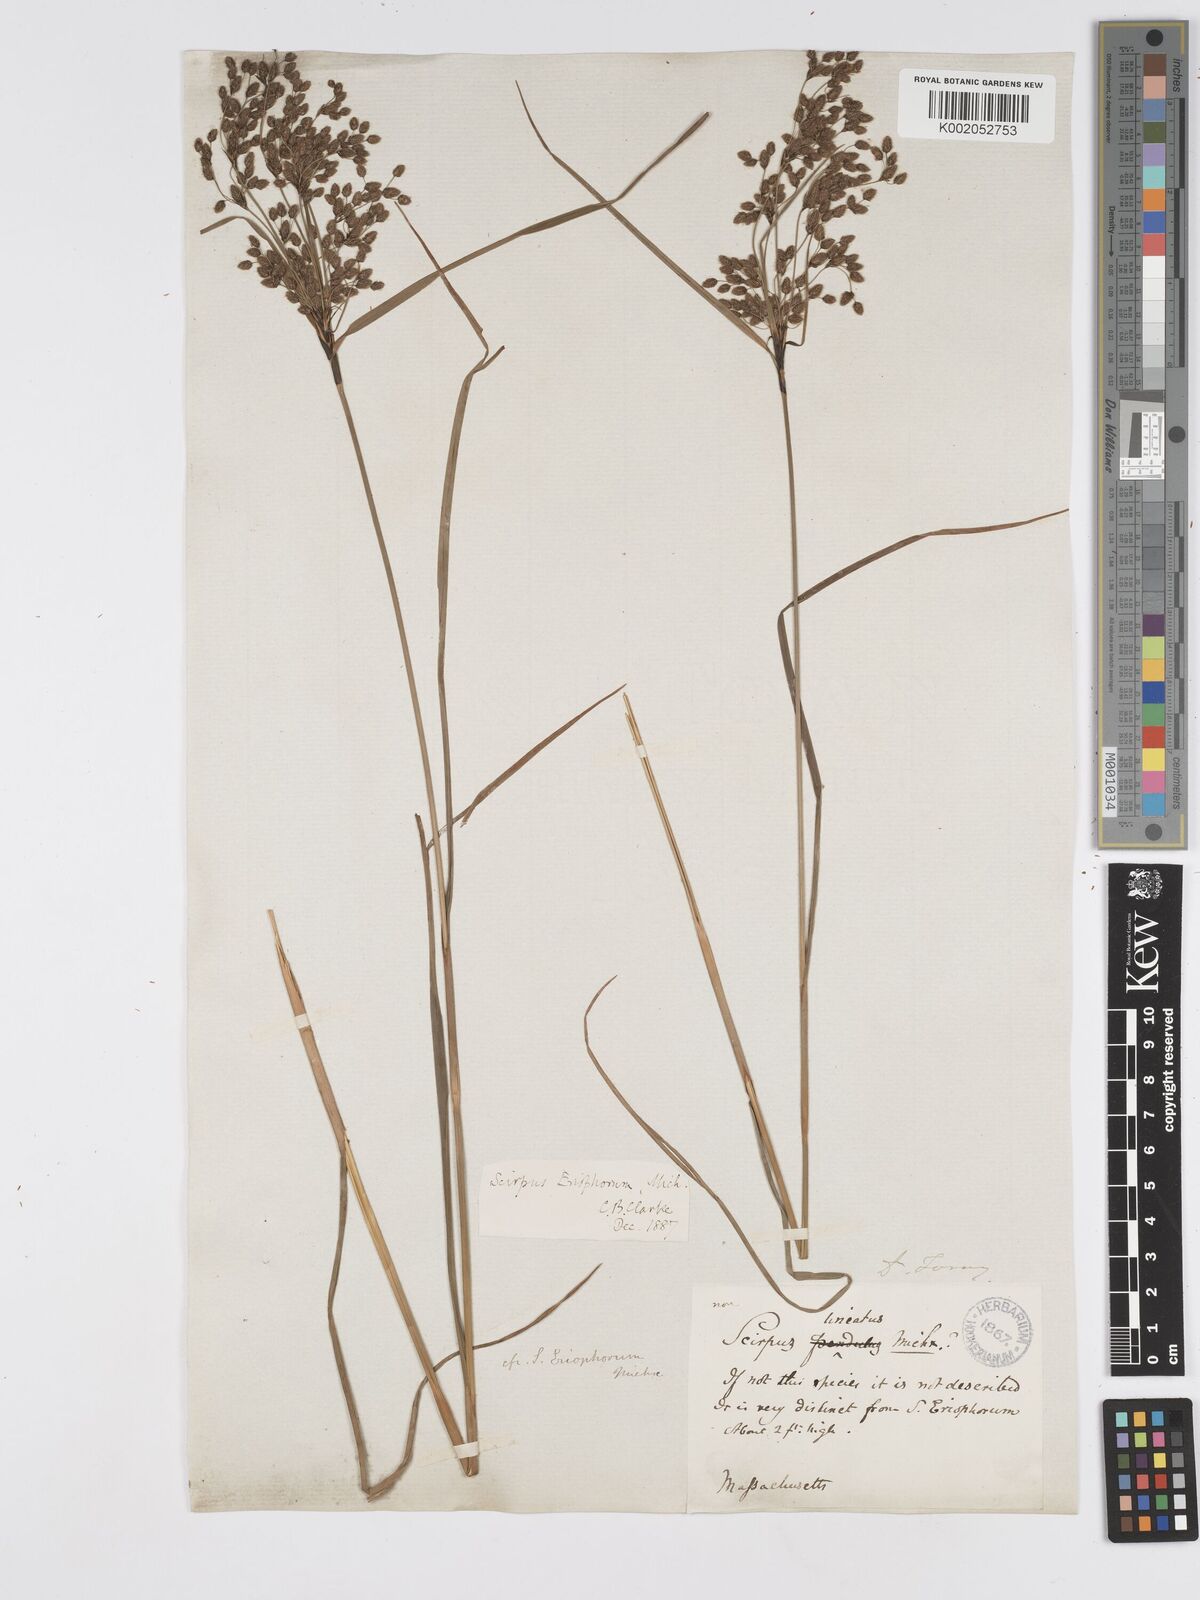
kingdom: Plantae
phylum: Tracheophyta
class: Liliopsida
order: Poales
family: Cyperaceae
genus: Scirpus
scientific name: Scirpus cyperinus
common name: Black-sheathed bulrush
